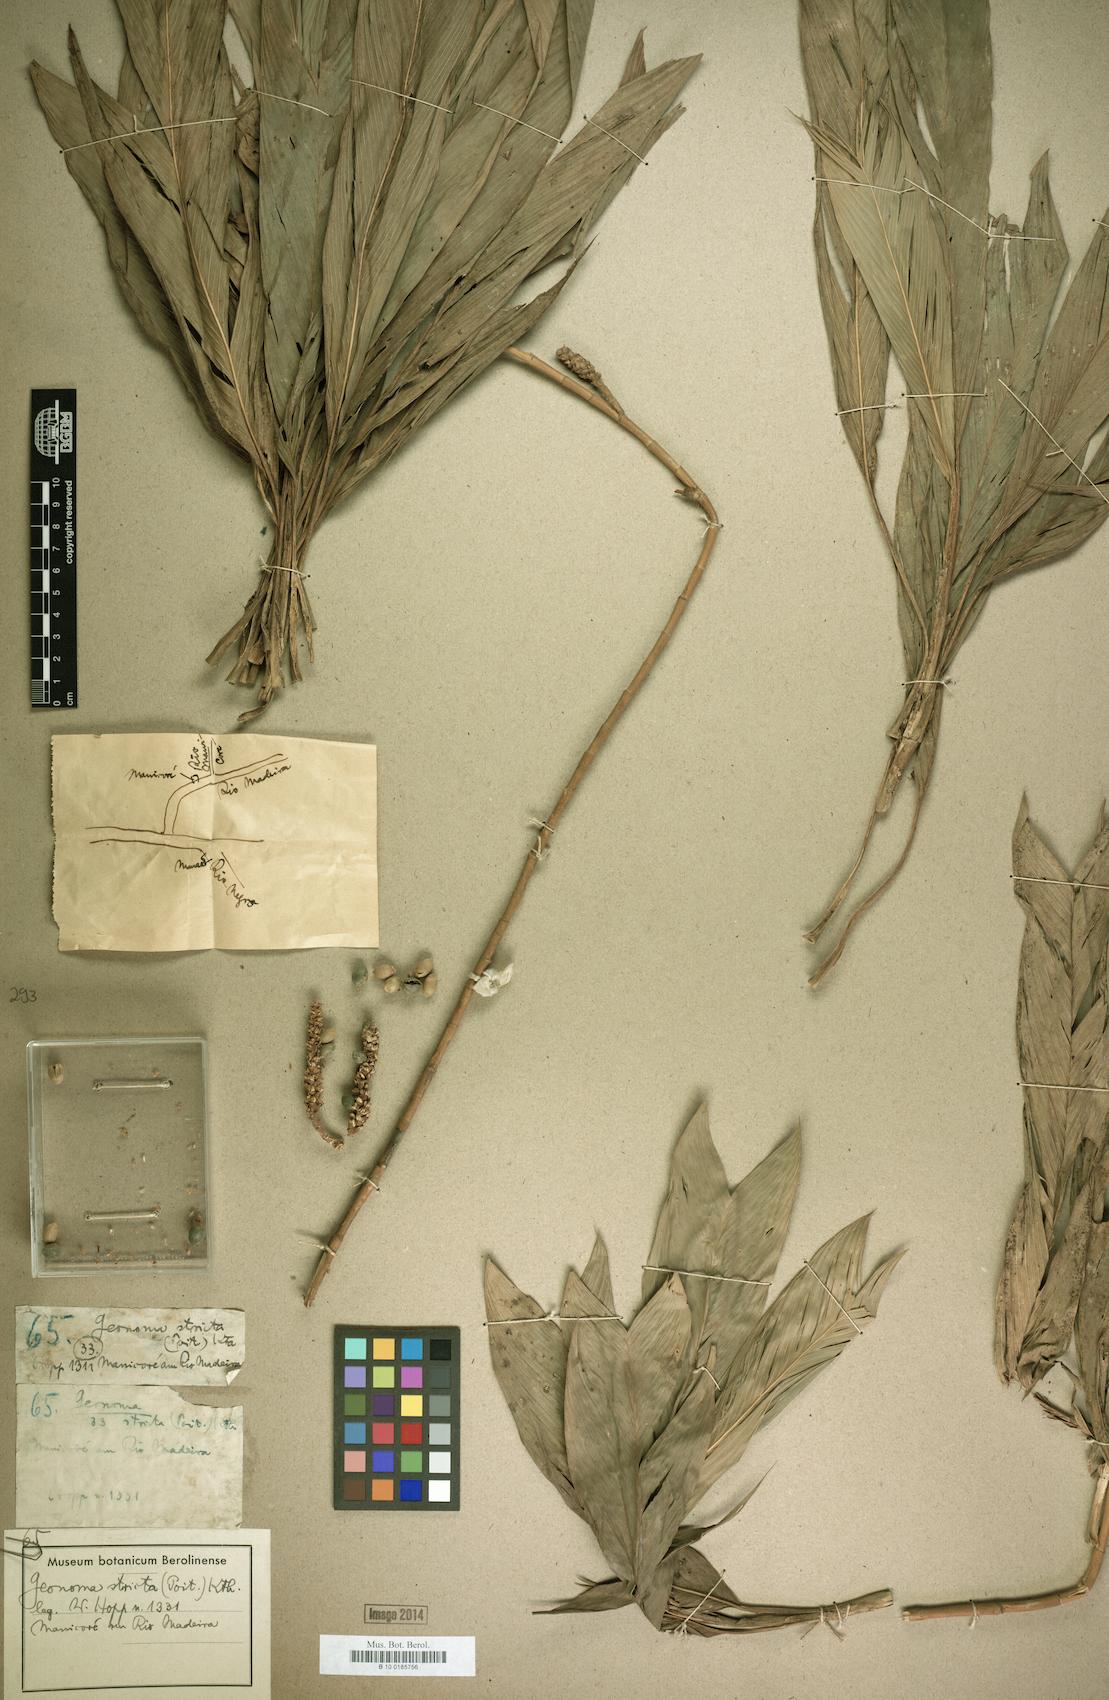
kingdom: Plantae
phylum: Tracheophyta
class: Liliopsida
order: Arecales
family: Arecaceae
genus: Geonoma
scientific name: Geonoma stricta
